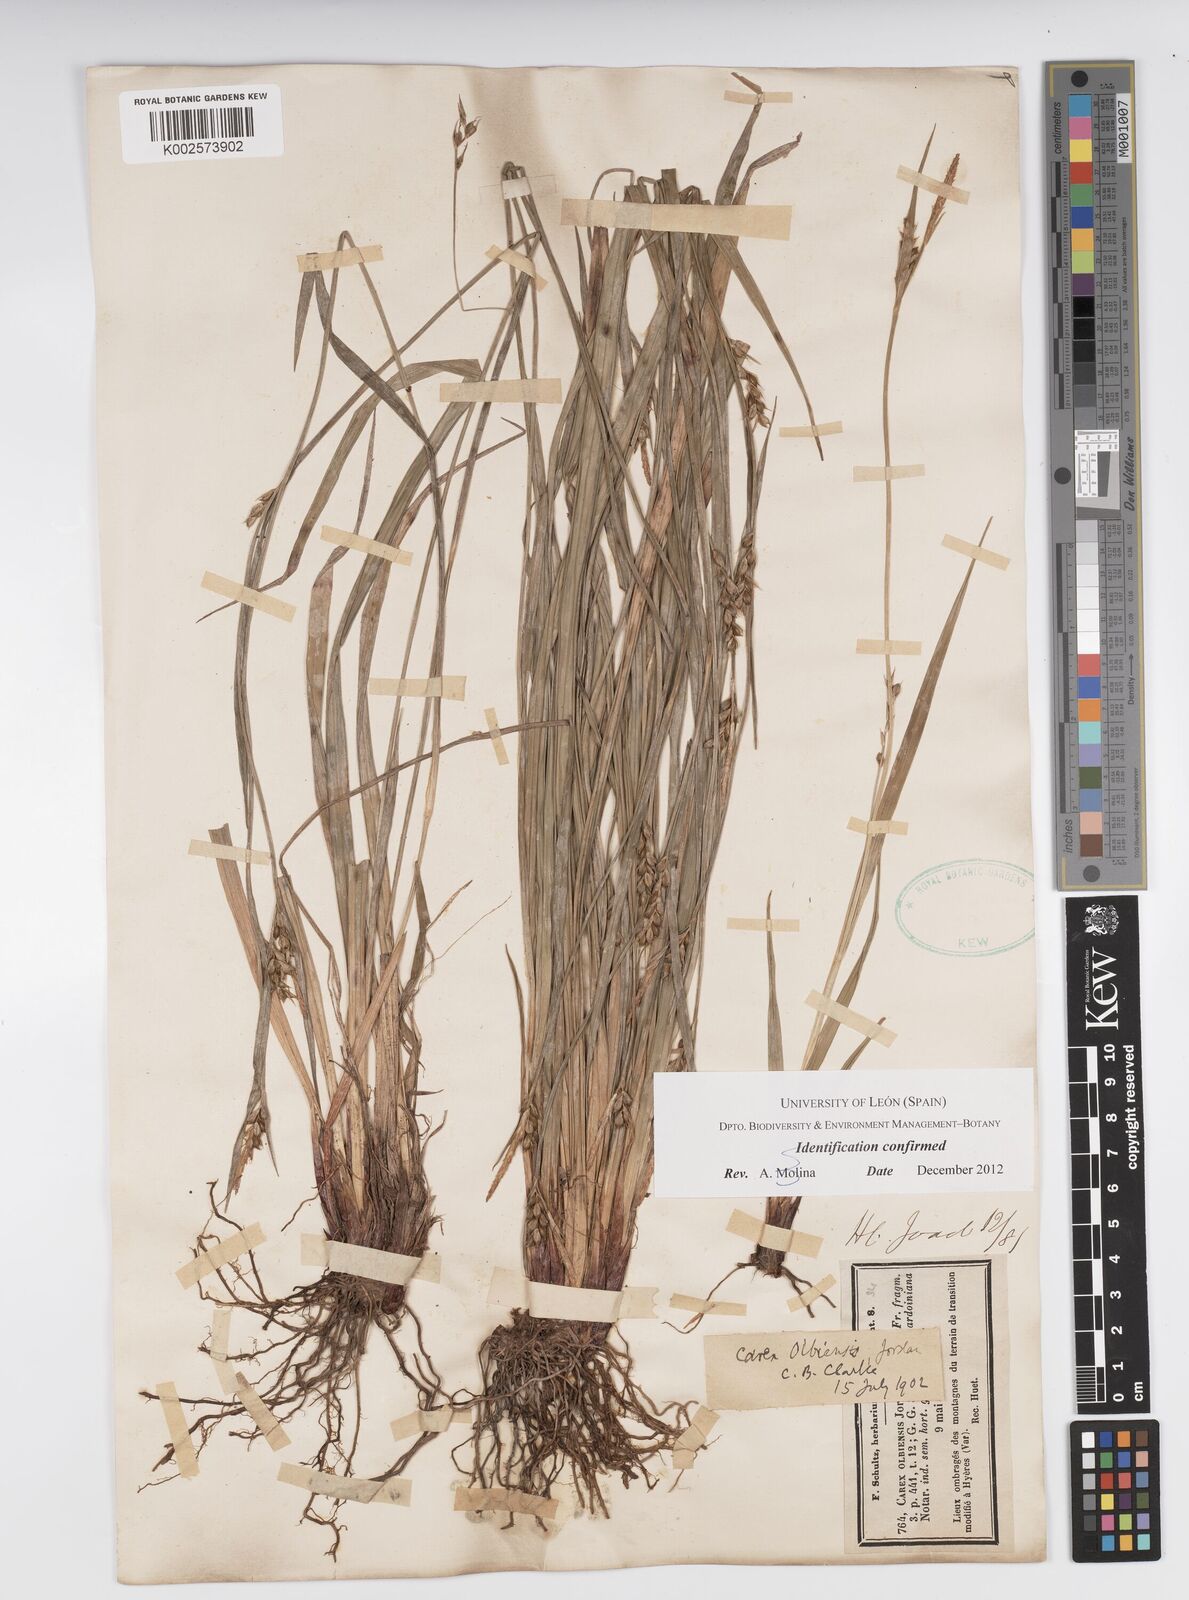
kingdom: Plantae
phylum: Tracheophyta
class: Liliopsida
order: Poales
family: Cyperaceae
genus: Carex
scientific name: Carex olbiensis
